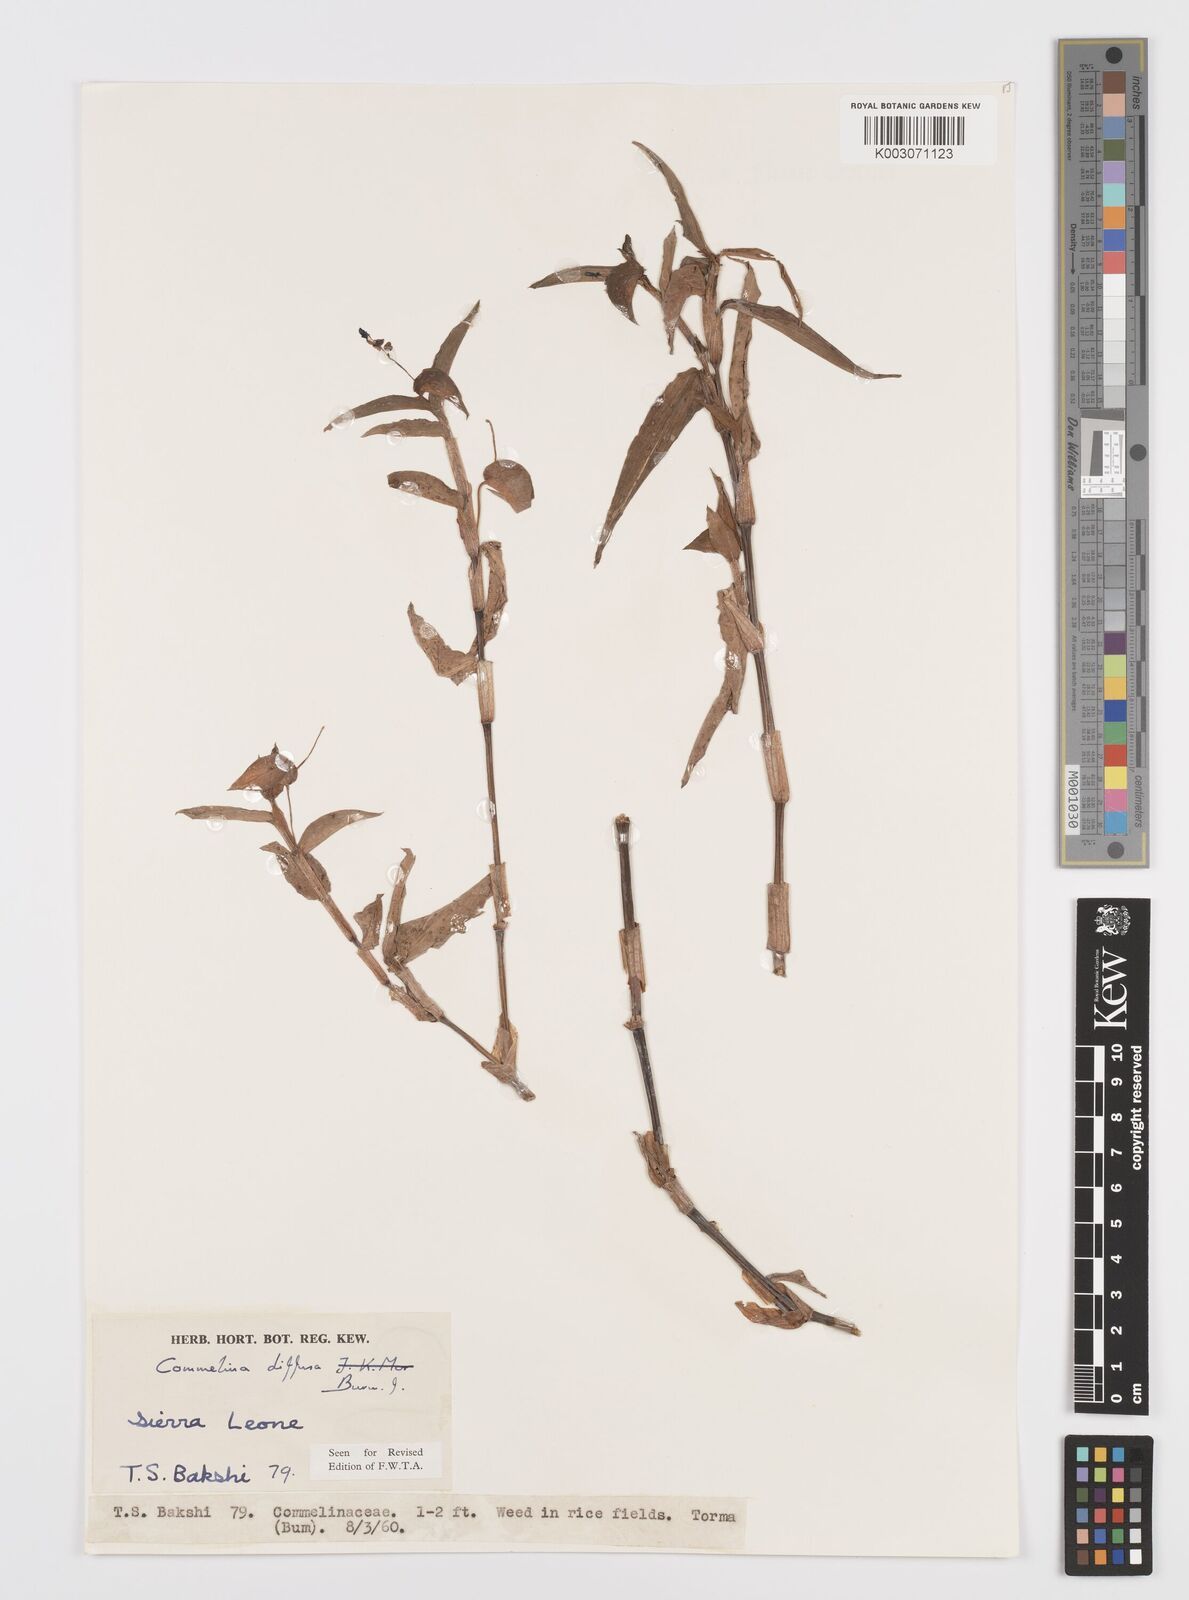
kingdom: Plantae
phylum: Tracheophyta
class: Liliopsida
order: Commelinales
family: Commelinaceae
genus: Commelina
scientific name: Commelina diffusa
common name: Climbing dayflower
